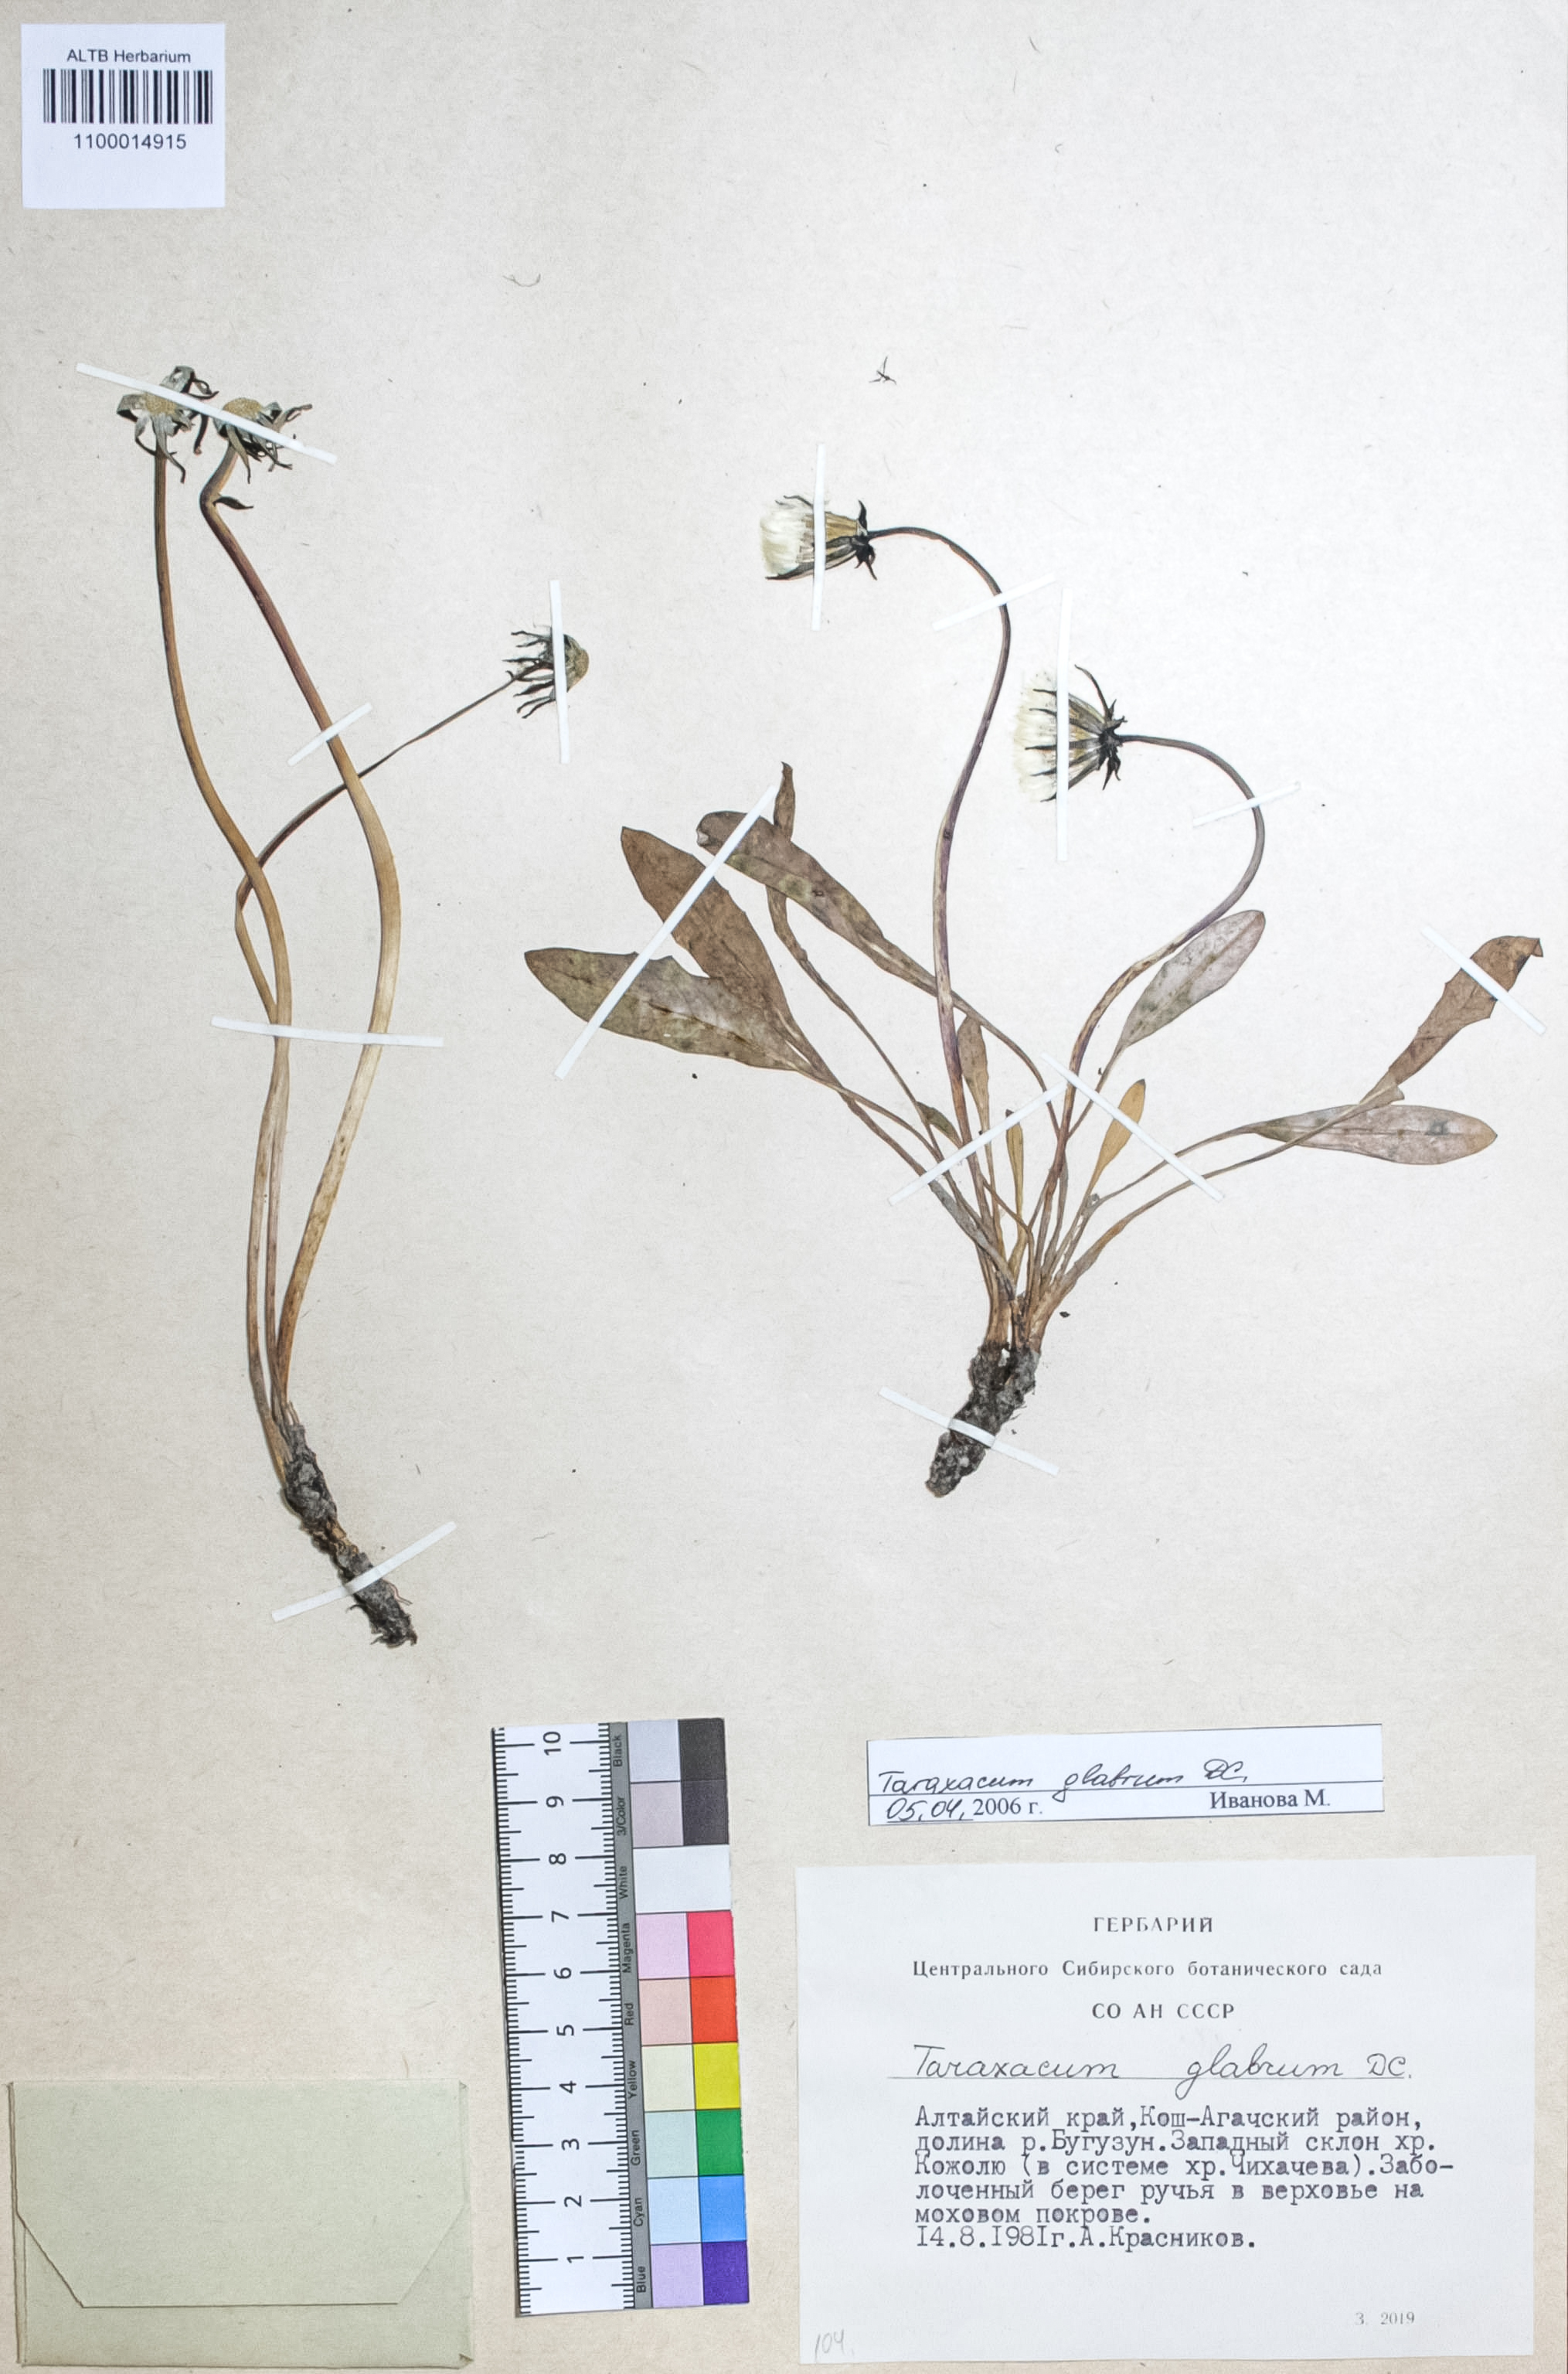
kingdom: Plantae
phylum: Tracheophyta
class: Magnoliopsida
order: Asterales
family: Asteraceae
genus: Taraxacum
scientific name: Taraxacum glabrum
